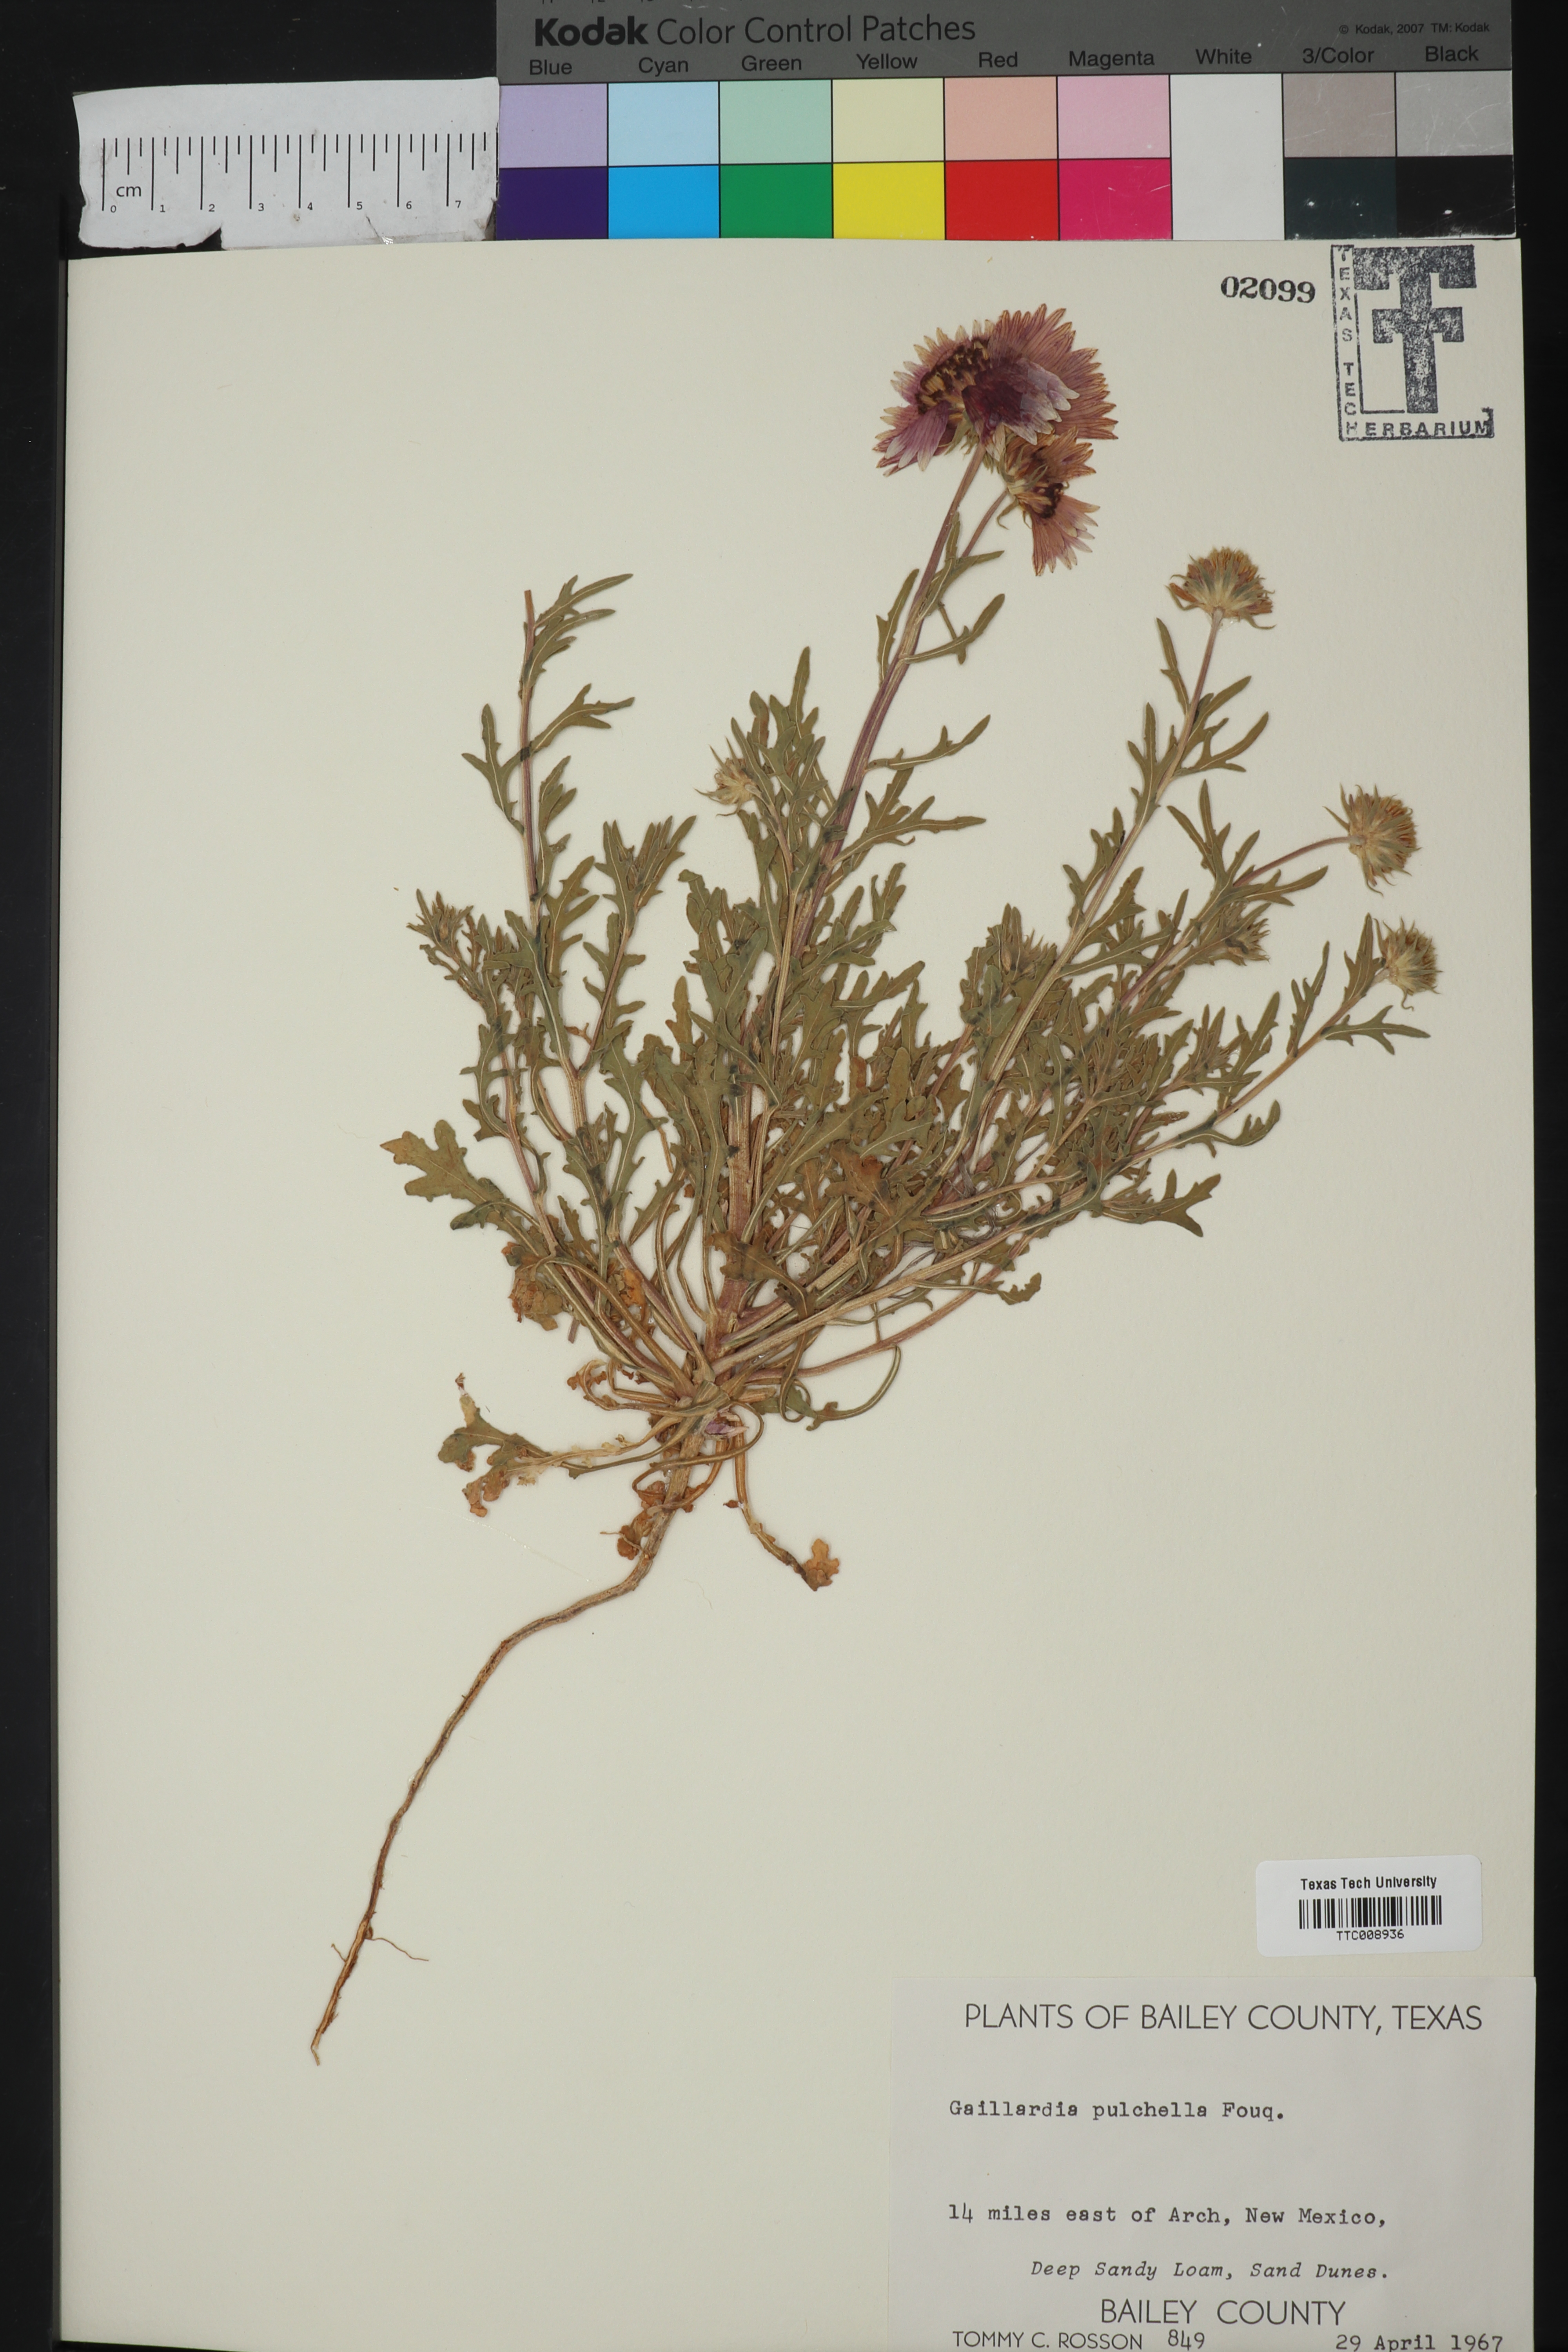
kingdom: Plantae
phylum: Tracheophyta
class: Magnoliopsida
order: Asterales
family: Asteraceae
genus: Gaillardia
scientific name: Gaillardia pulchella
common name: Firewheel
